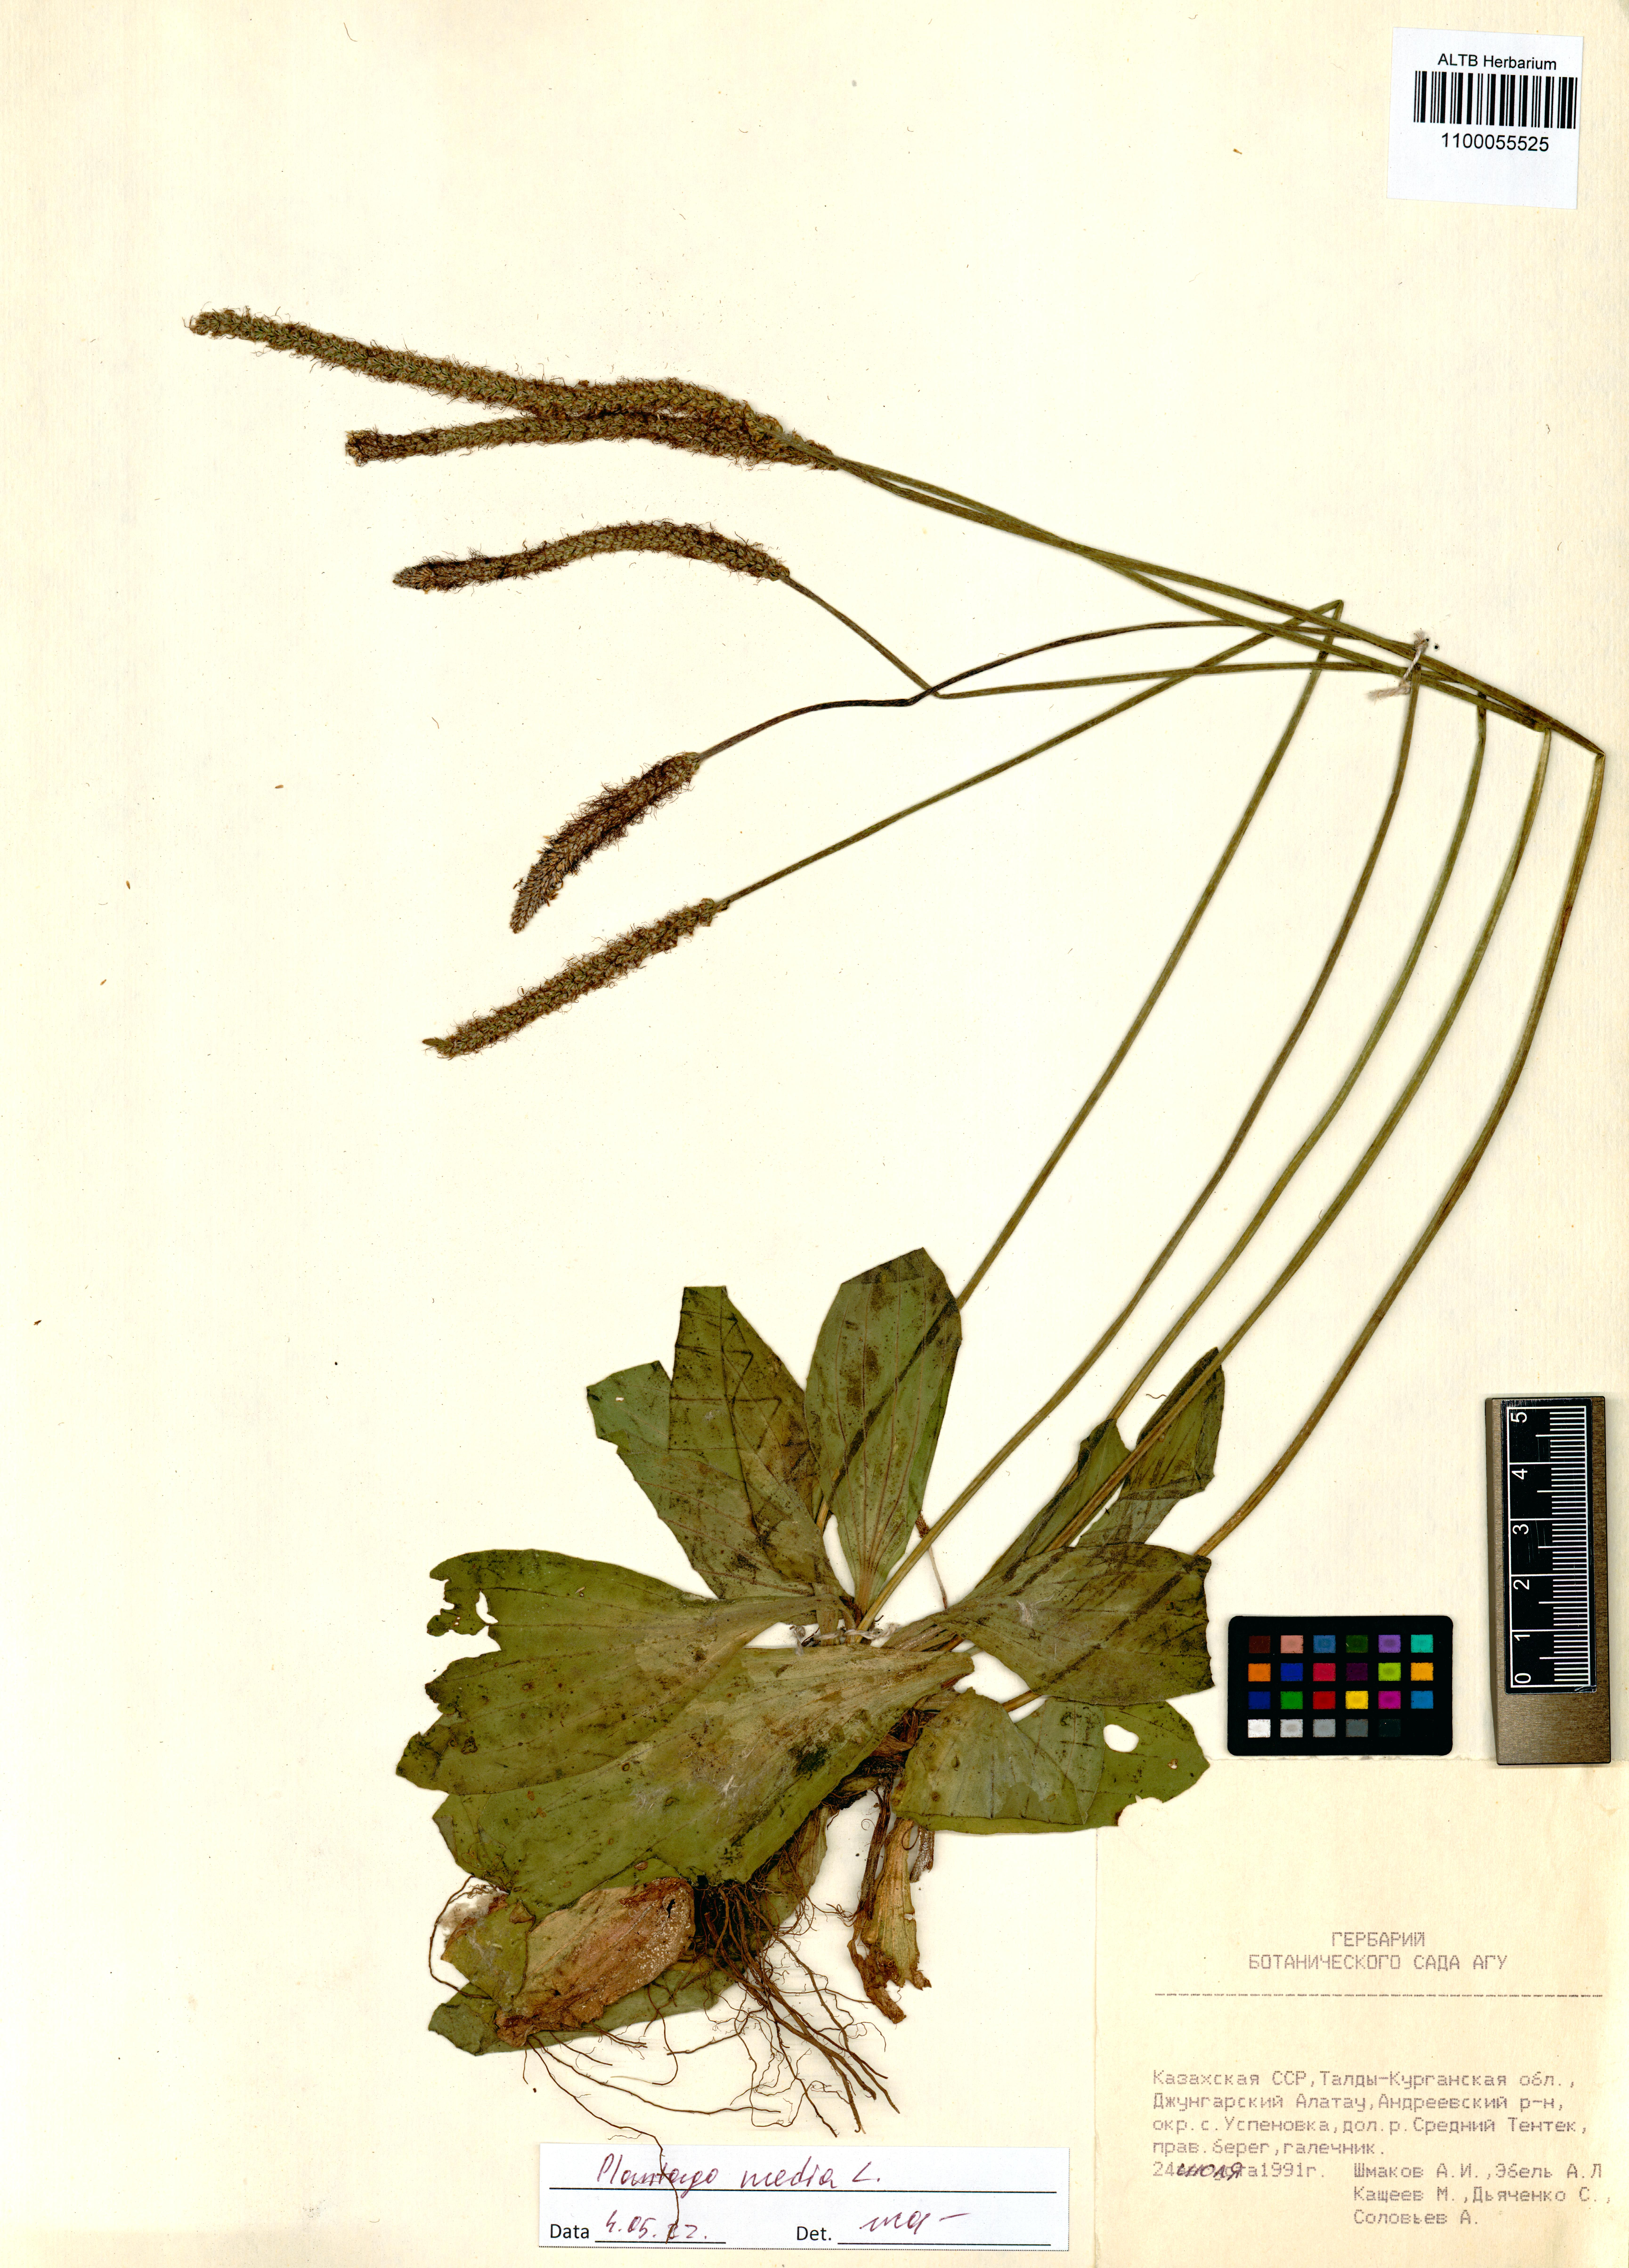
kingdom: Plantae
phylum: Tracheophyta
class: Magnoliopsida
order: Lamiales
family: Plantaginaceae
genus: Plantago
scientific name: Plantago media
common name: Hoary plantain
